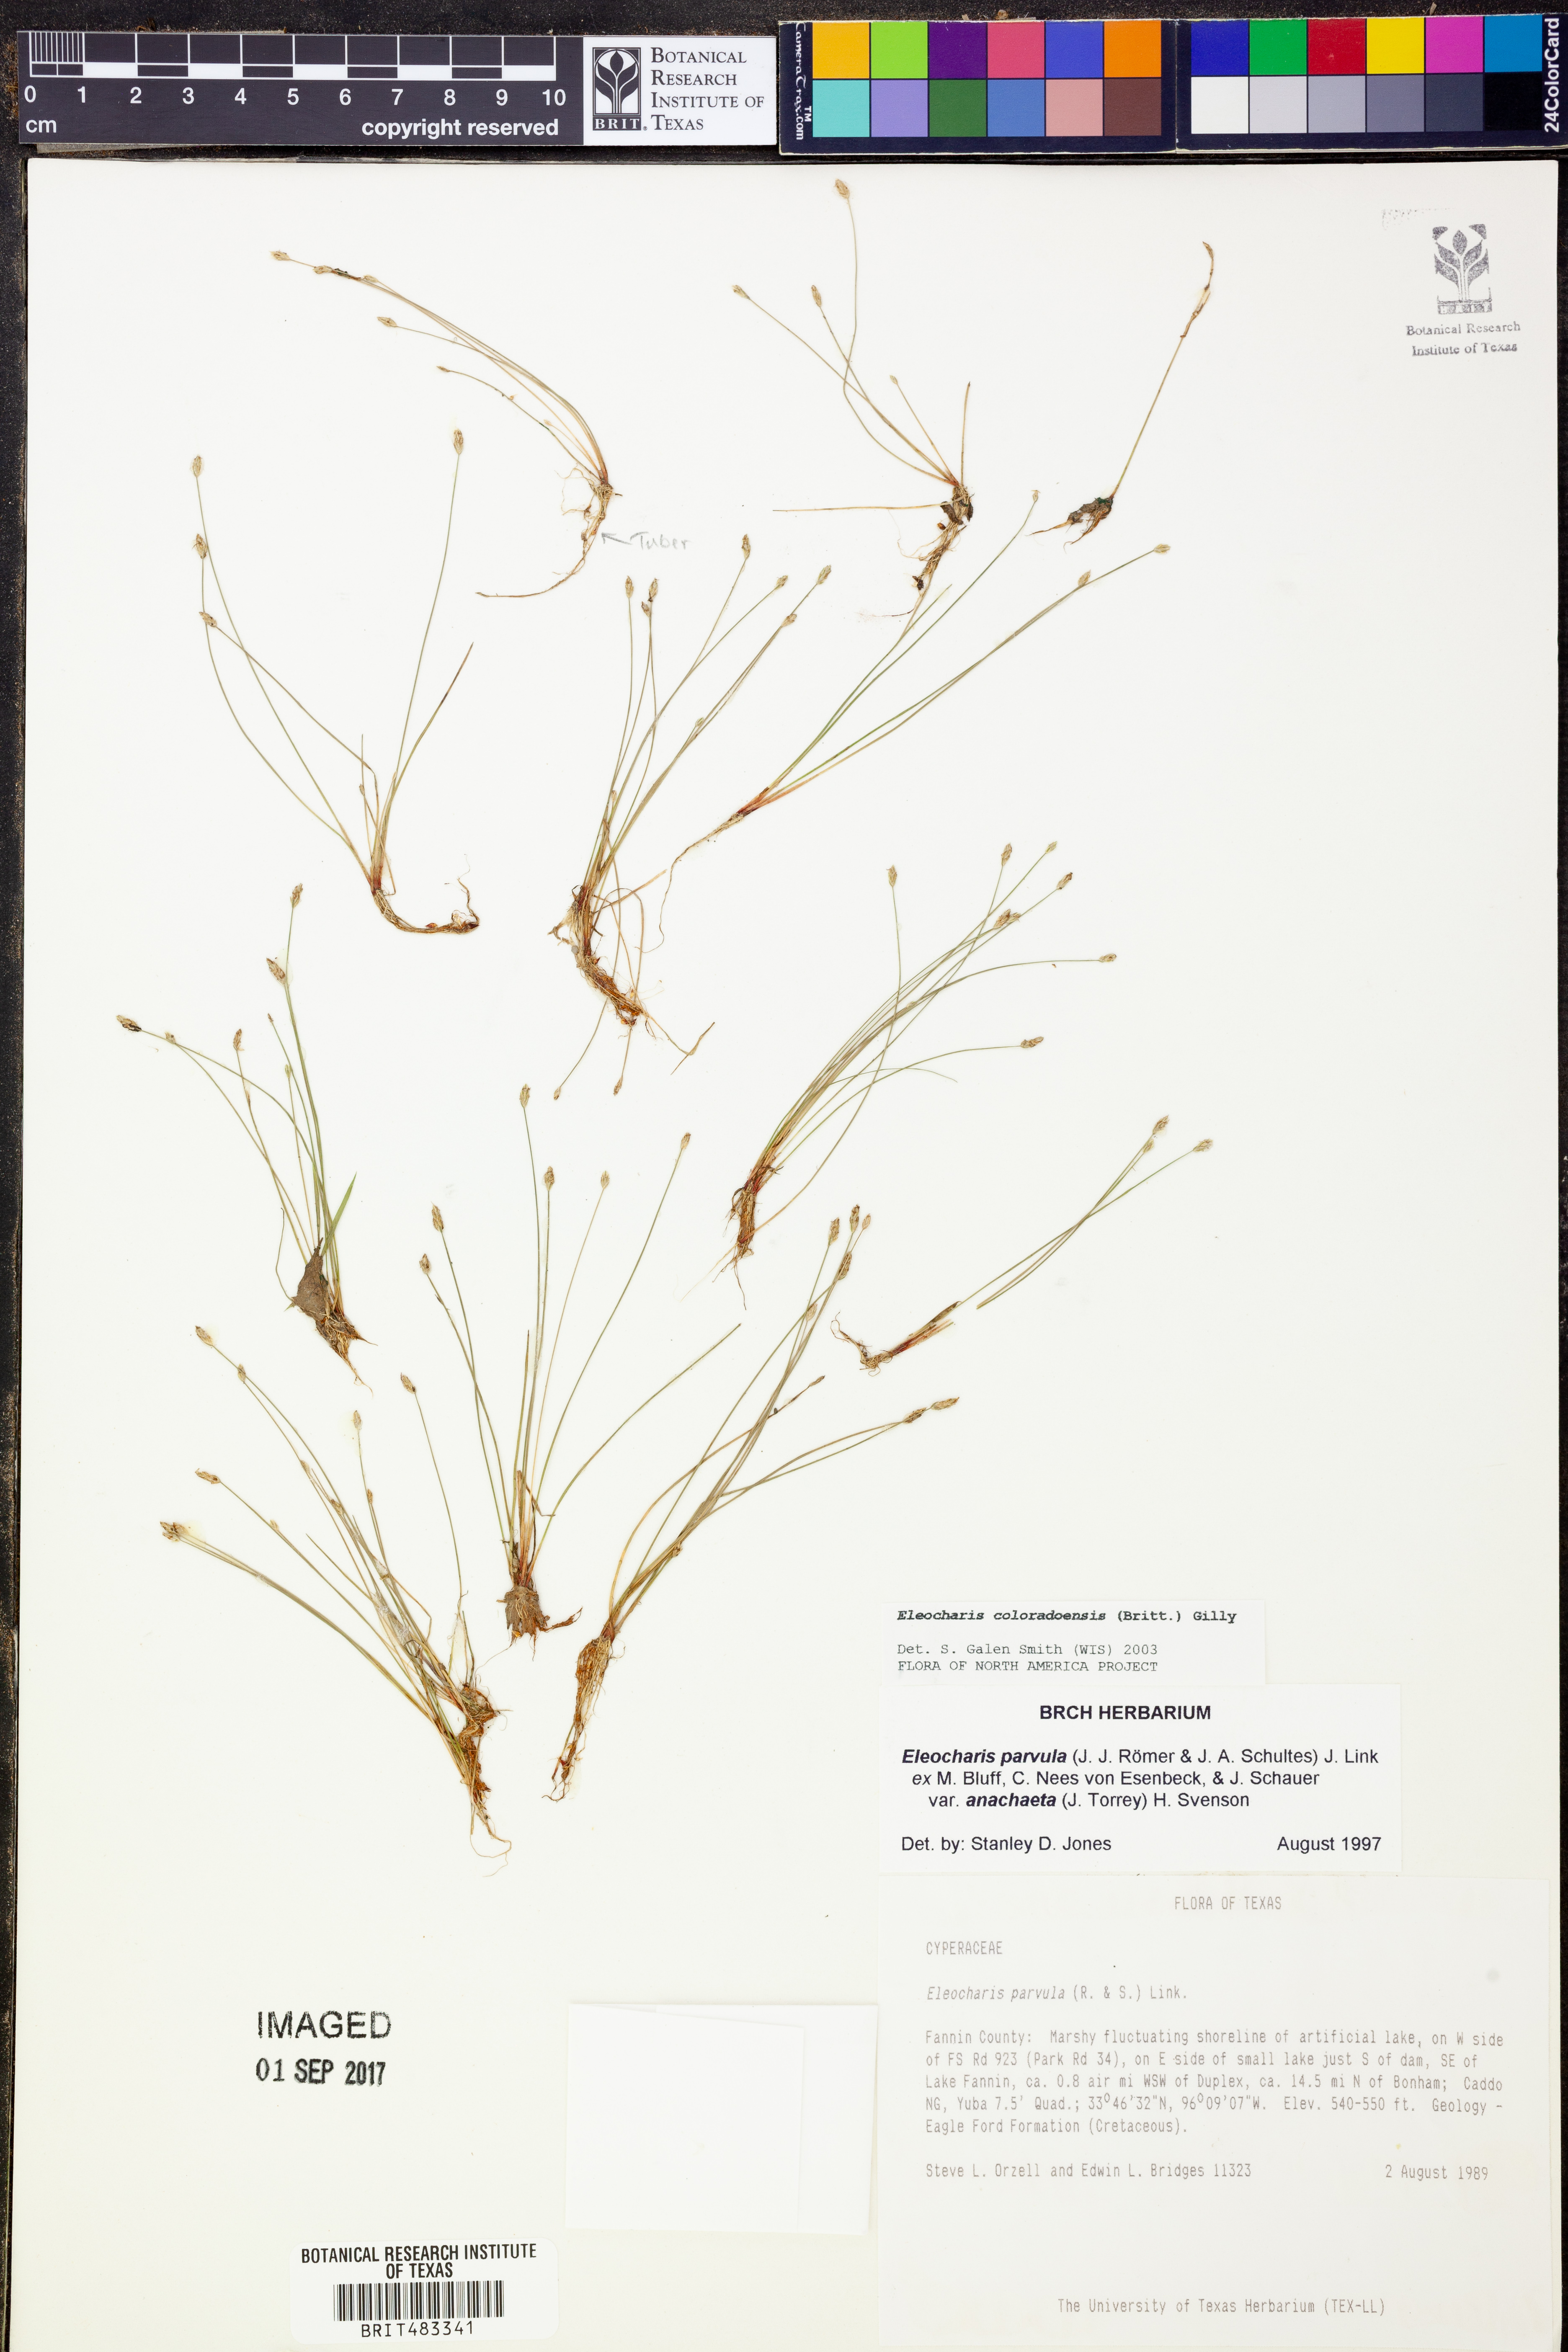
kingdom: Plantae
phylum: Tracheophyta
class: Liliopsida
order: Poales
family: Cyperaceae
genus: Eleocharis
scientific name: Eleocharis coloradoensis
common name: Colorado spikerush
